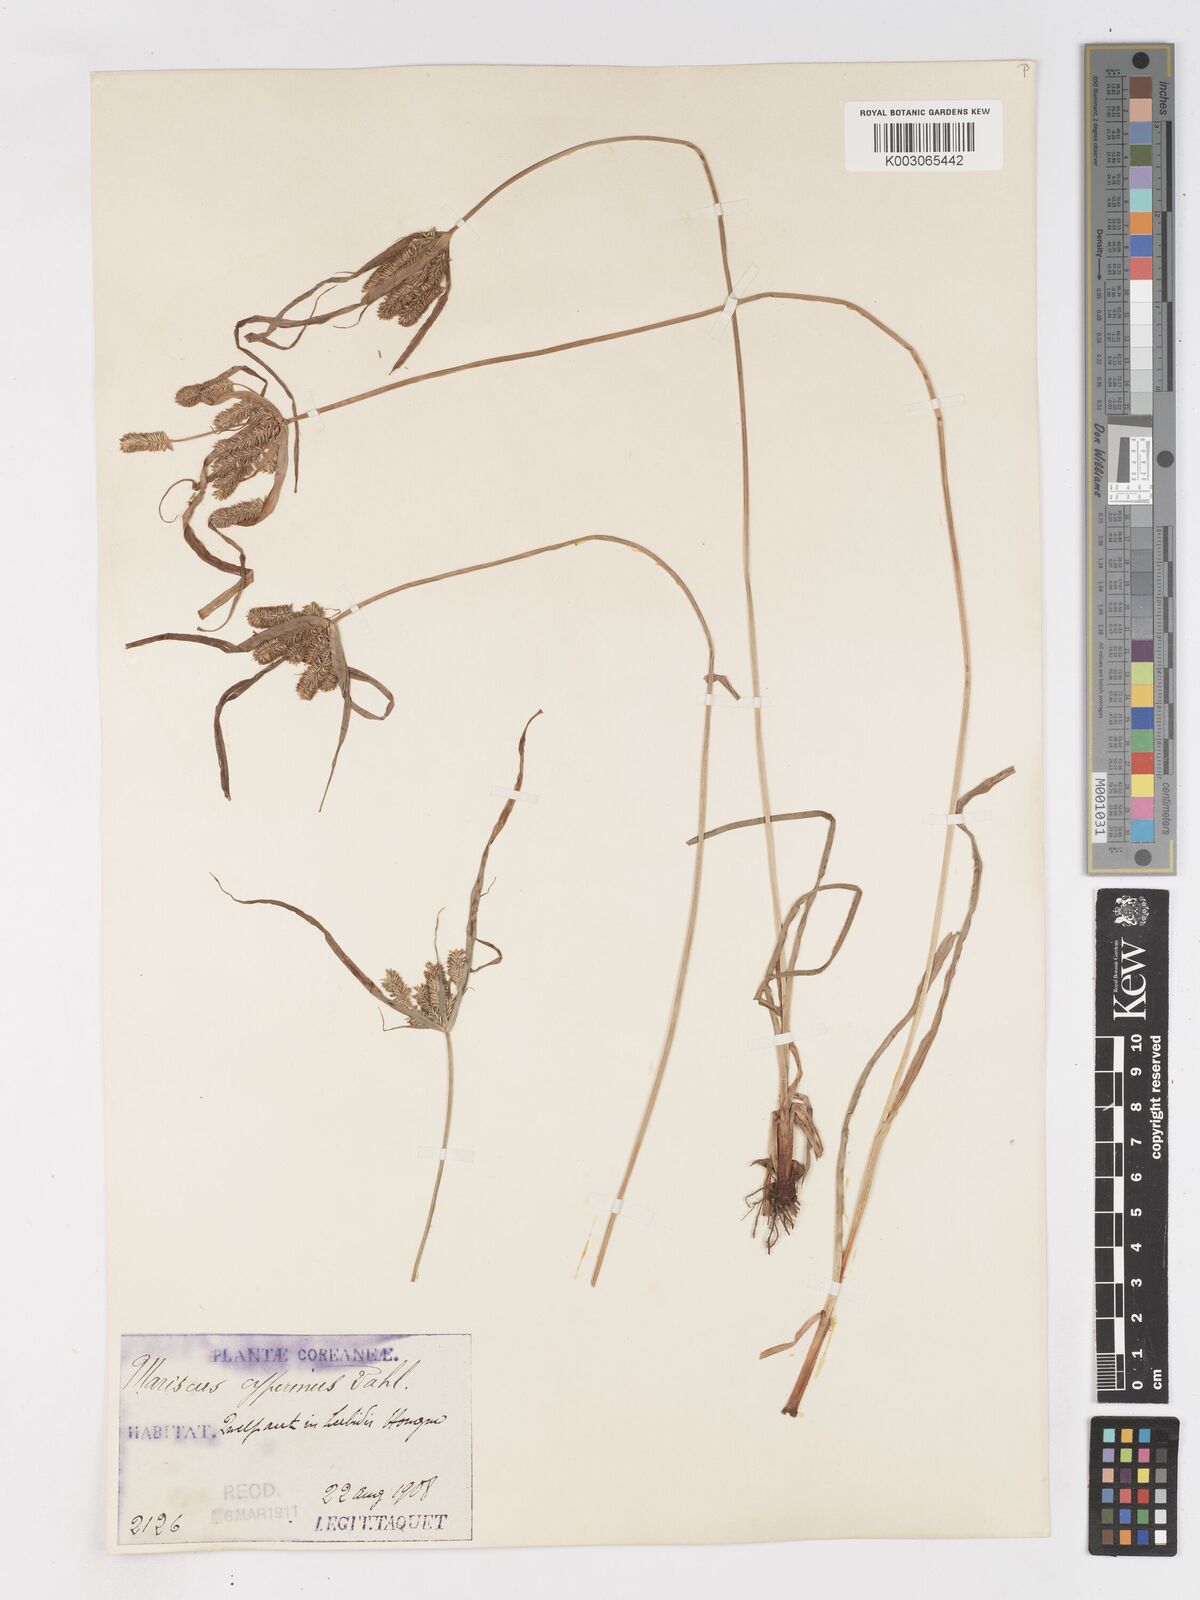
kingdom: Plantae
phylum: Tracheophyta
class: Liliopsida
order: Poales
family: Cyperaceae
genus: Cyperus
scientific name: Cyperus cyperinus
